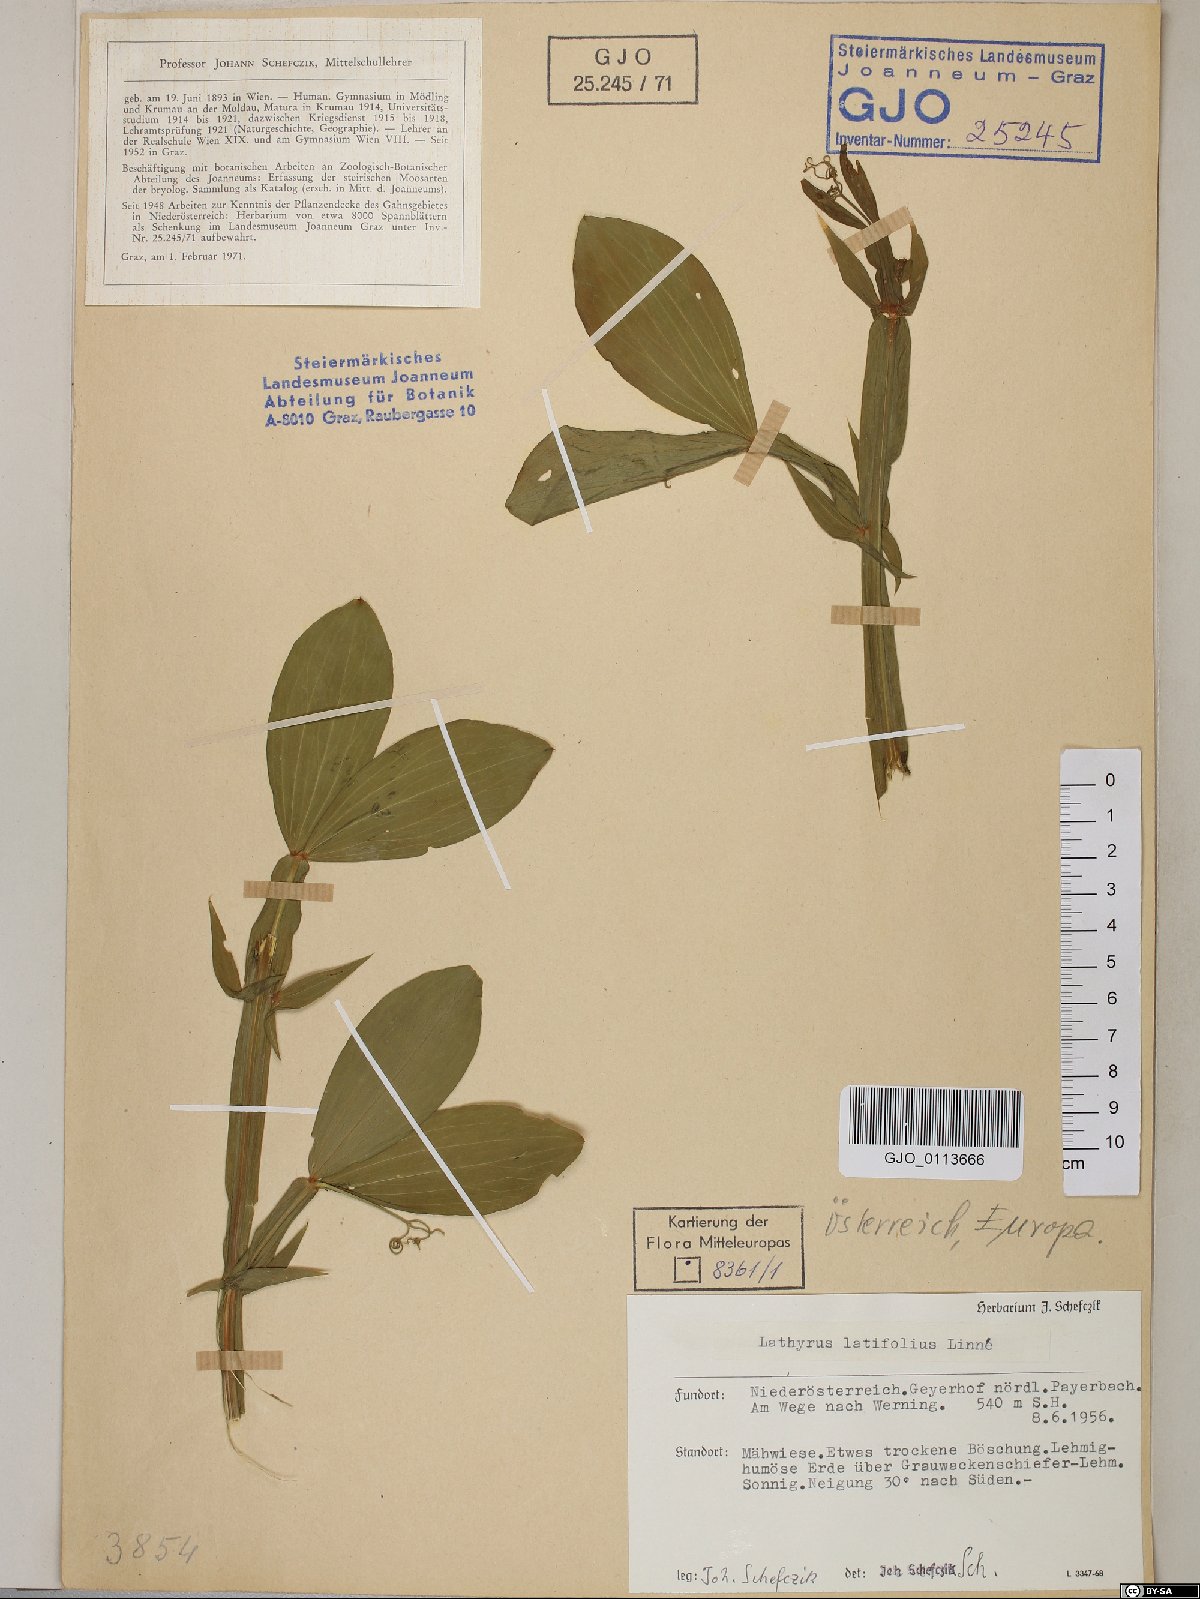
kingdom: Plantae
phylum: Tracheophyta
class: Magnoliopsida
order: Fabales
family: Fabaceae
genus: Lathyrus
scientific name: Lathyrus latifolius
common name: Perennial pea
